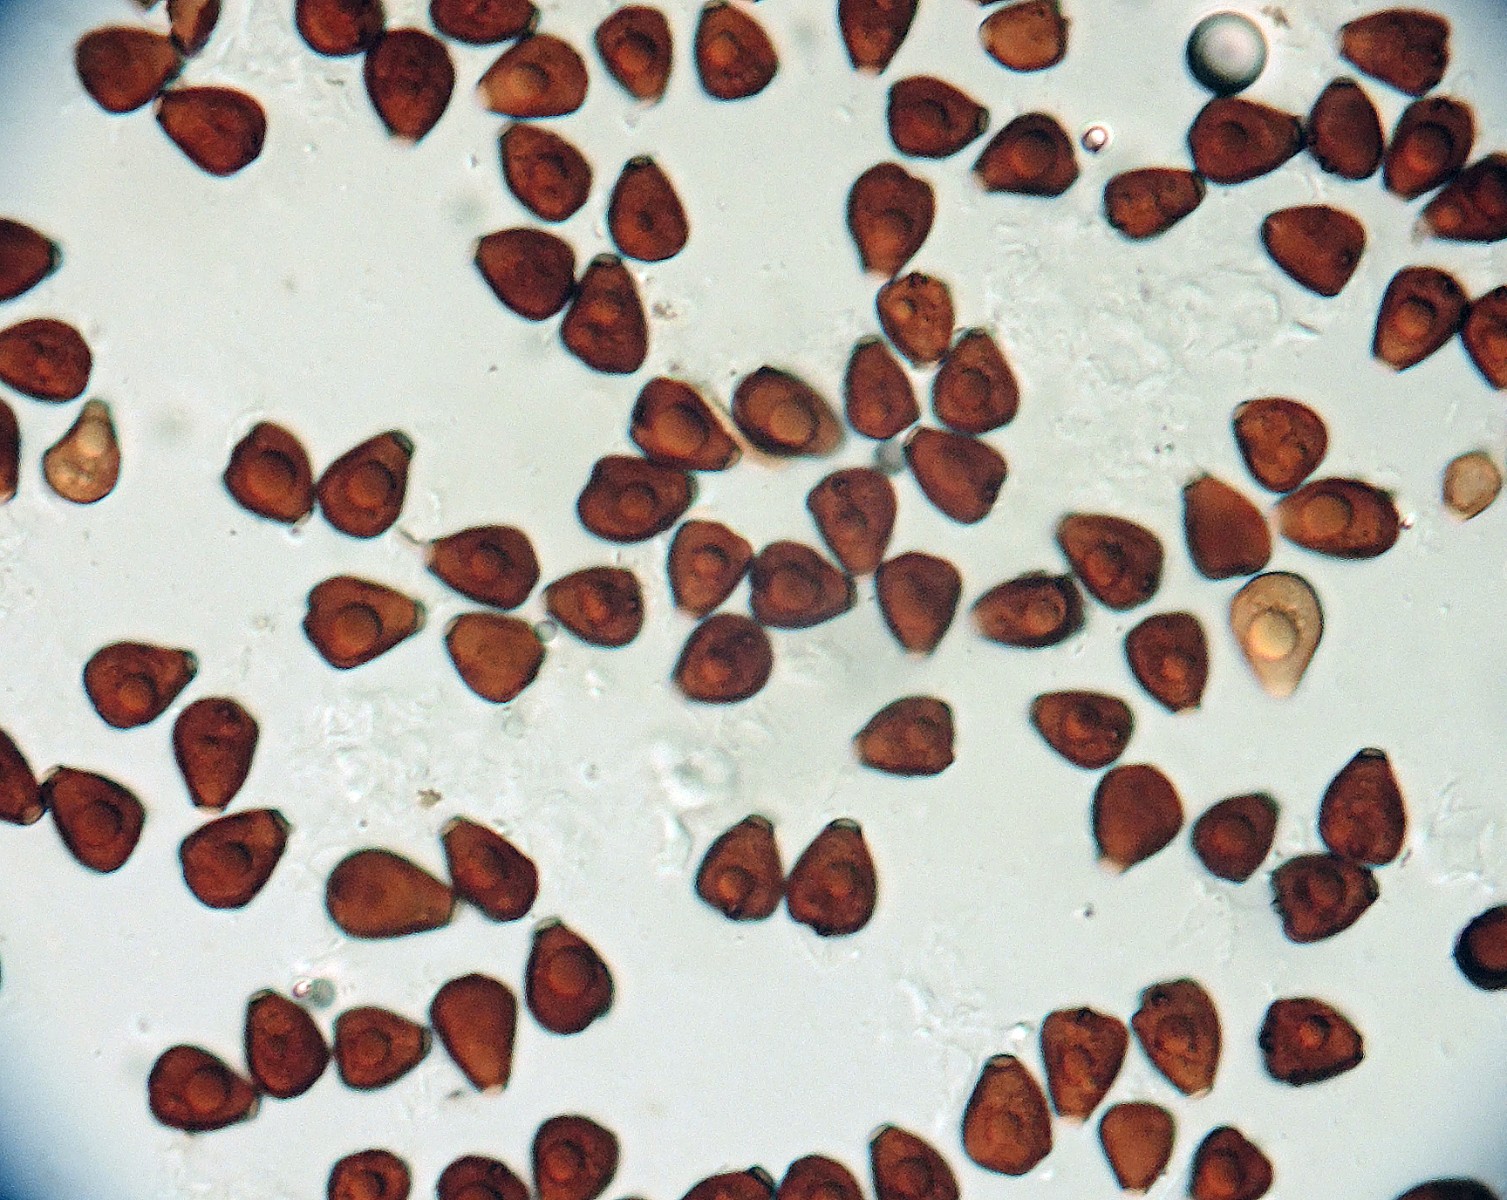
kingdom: Fungi
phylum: Basidiomycota
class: Agaricomycetes
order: Agaricales
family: Psathyrellaceae
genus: Coprinopsis
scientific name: Coprinopsis episcopalis
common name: bispehue-blækhat
